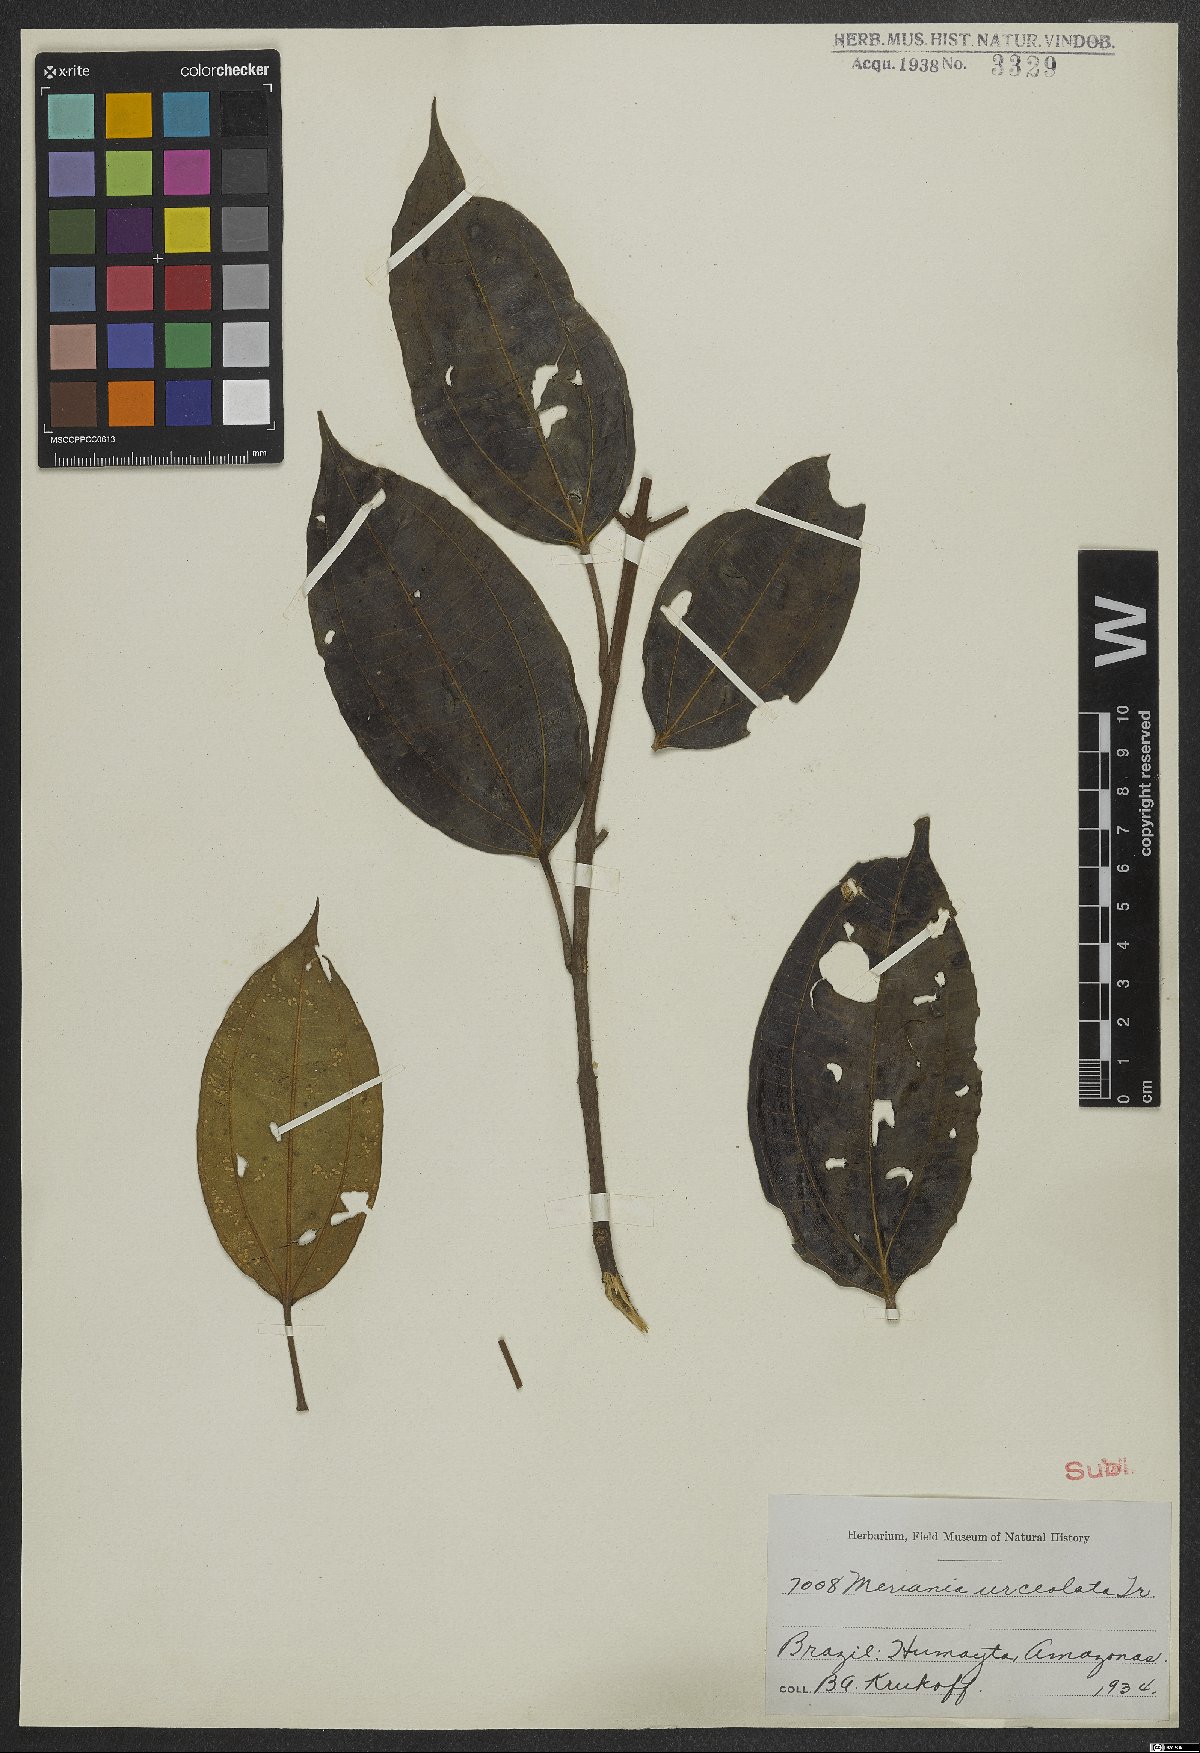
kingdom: Plantae
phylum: Tracheophyta
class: Magnoliopsida
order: Myrtales
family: Melastomataceae
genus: Meriania
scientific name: Meriania urceolata
